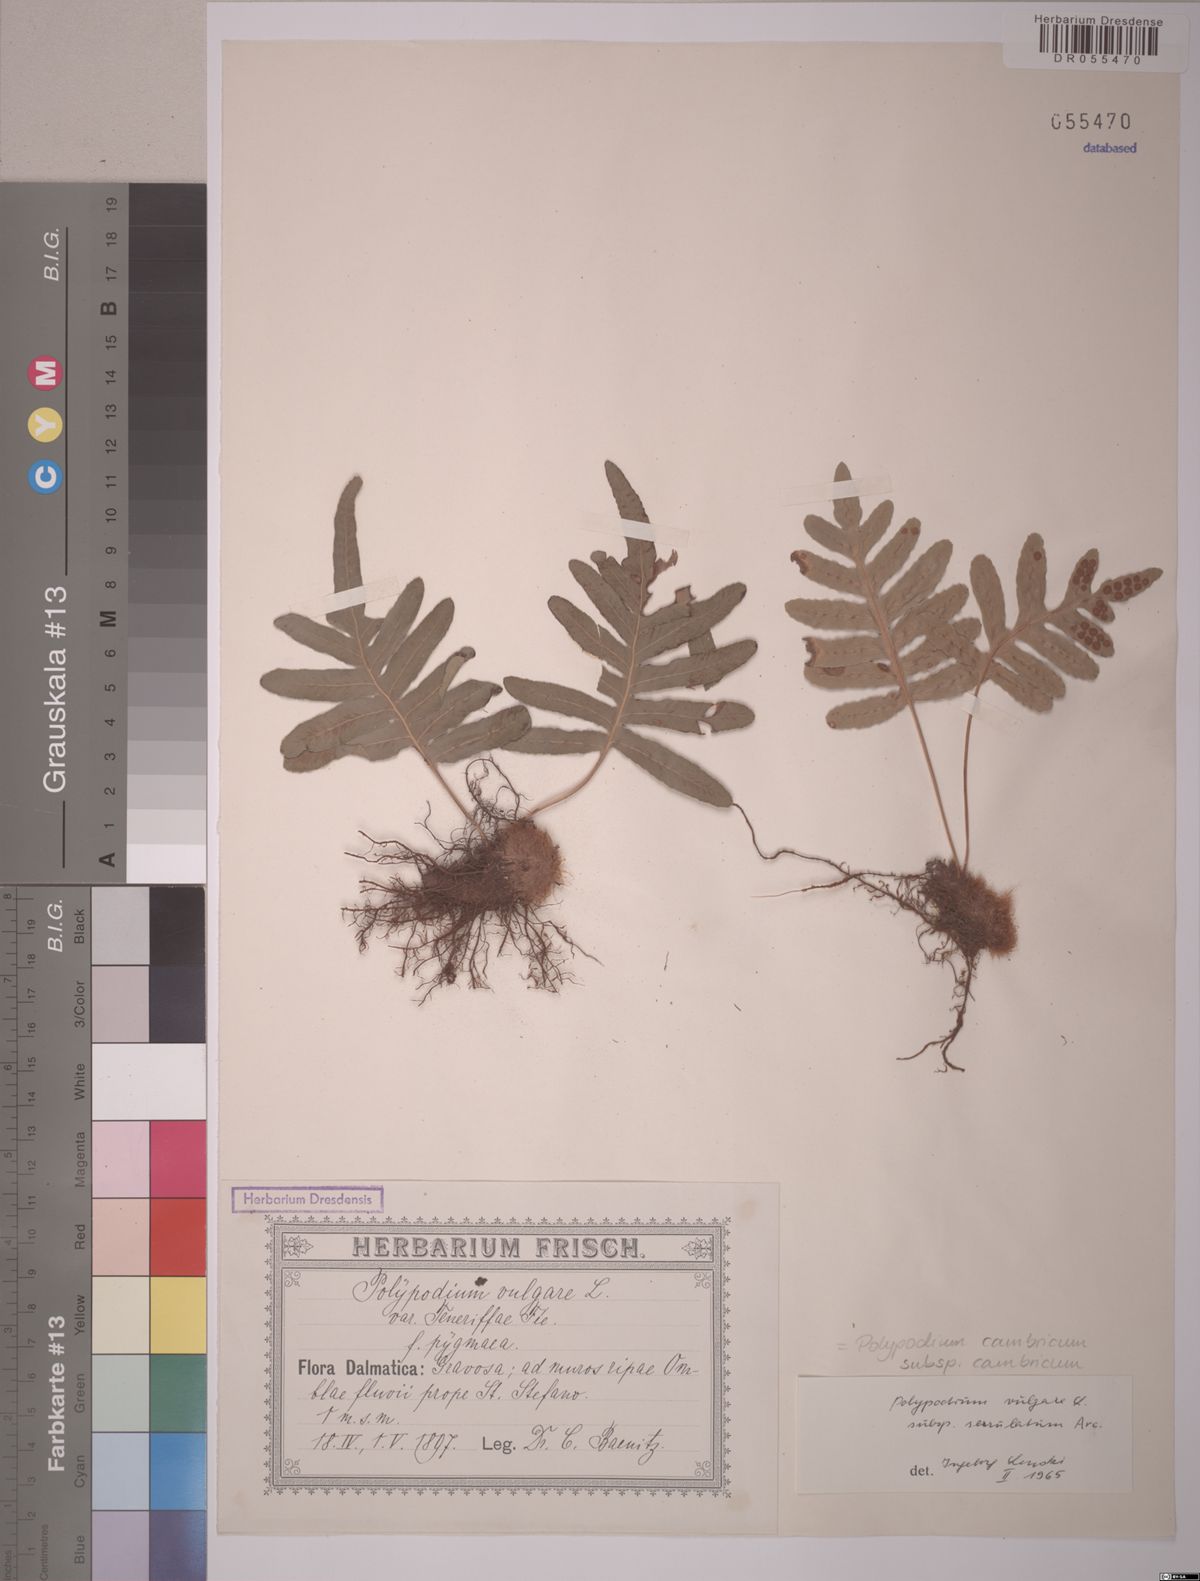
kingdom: Plantae
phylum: Tracheophyta
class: Polypodiopsida
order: Polypodiales
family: Polypodiaceae
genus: Polypodium
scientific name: Polypodium cambricum
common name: Southern polypody
